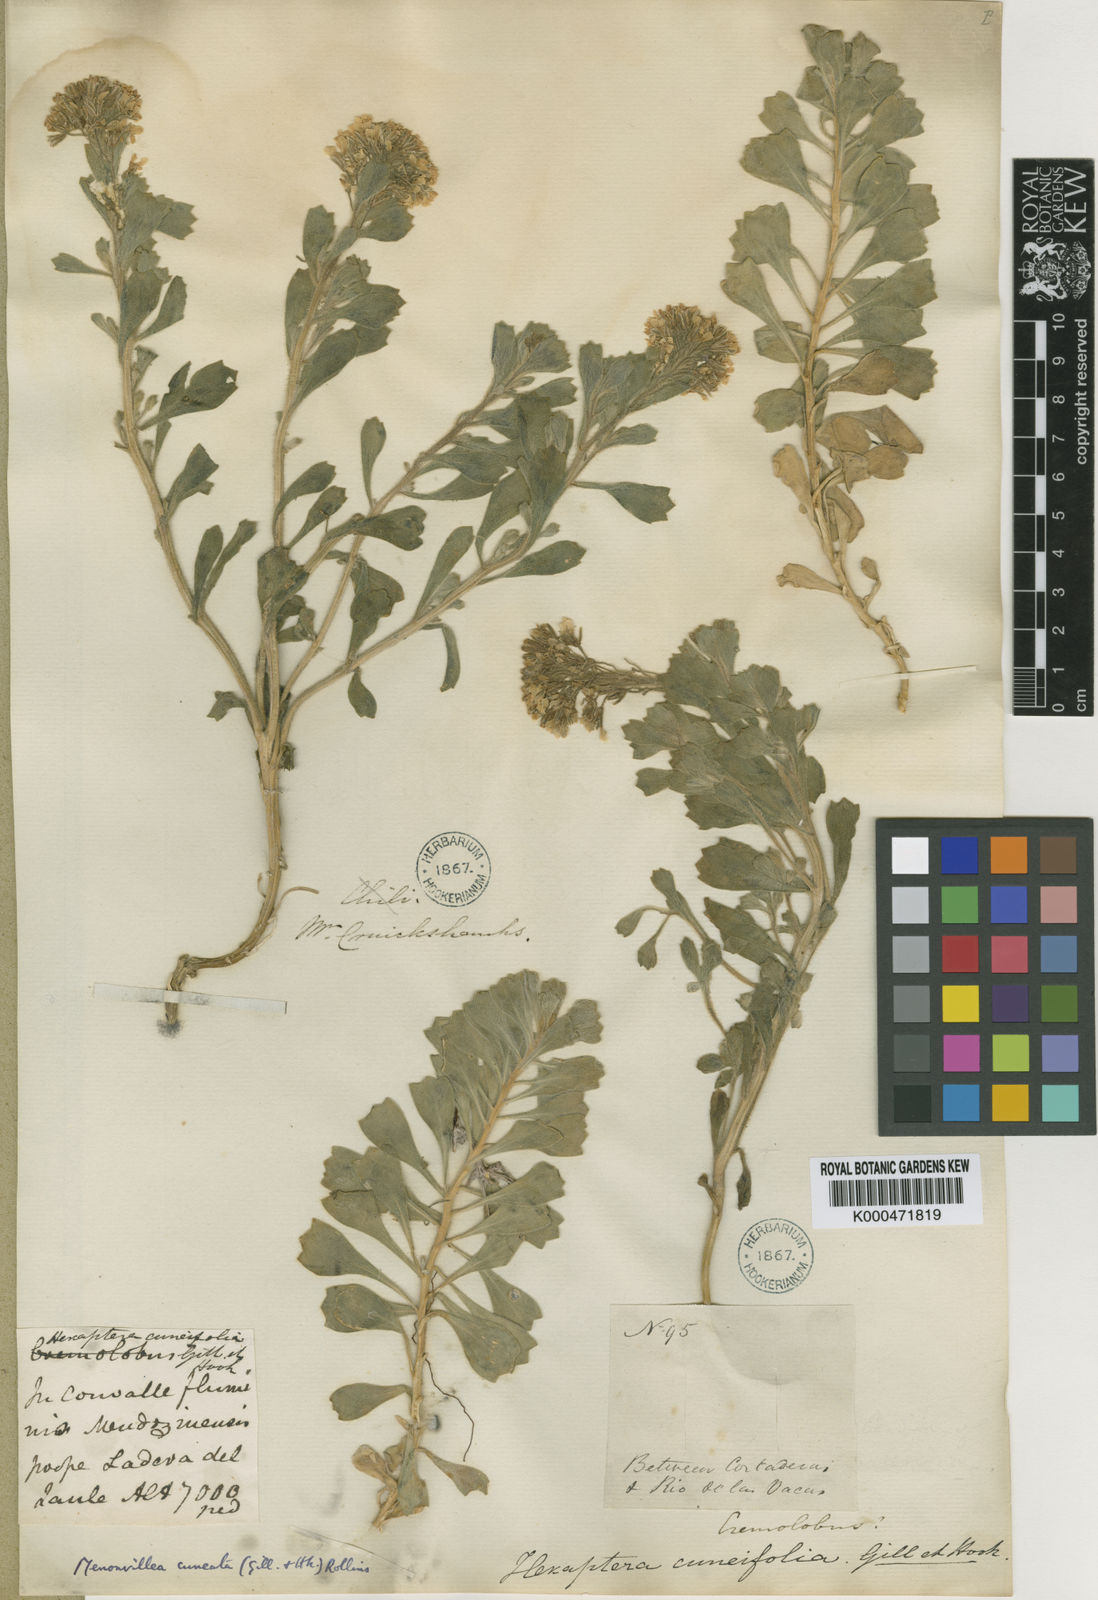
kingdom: Plantae
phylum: Tracheophyta
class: Magnoliopsida
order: Brassicales
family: Brassicaceae
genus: Menonvillea
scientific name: Menonvillea cuneata
